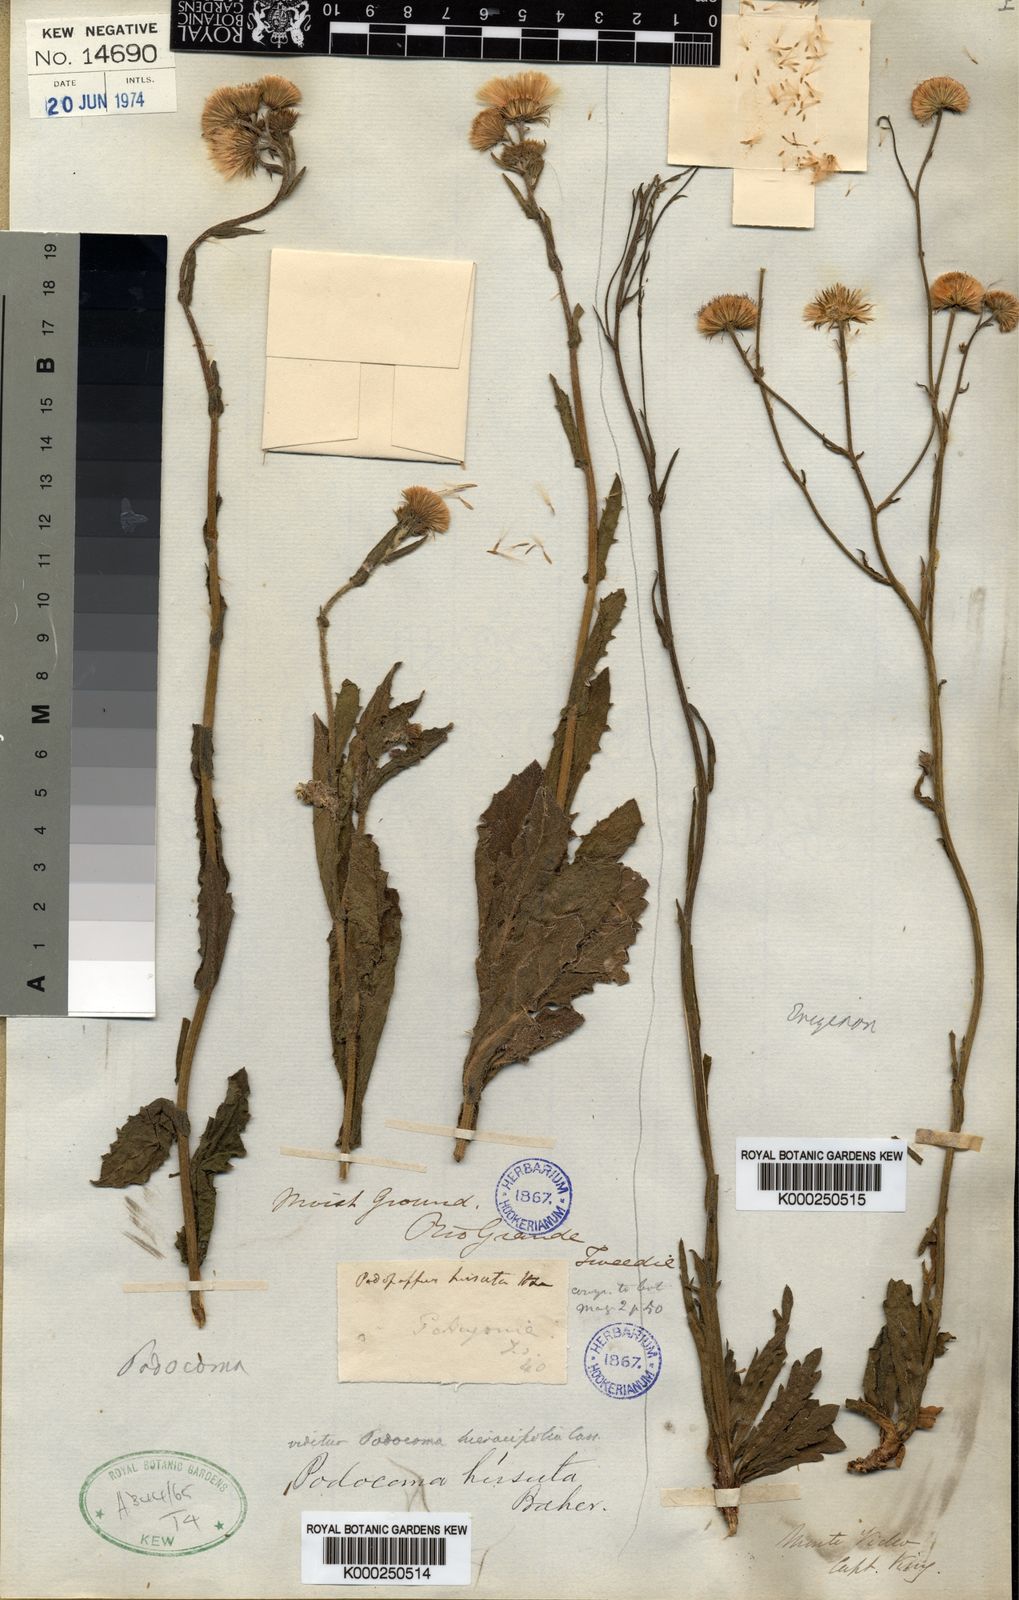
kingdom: Plantae
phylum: Tracheophyta
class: Magnoliopsida
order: Asterales
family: Asteraceae
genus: Podocoma
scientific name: Podocoma hirsuta
